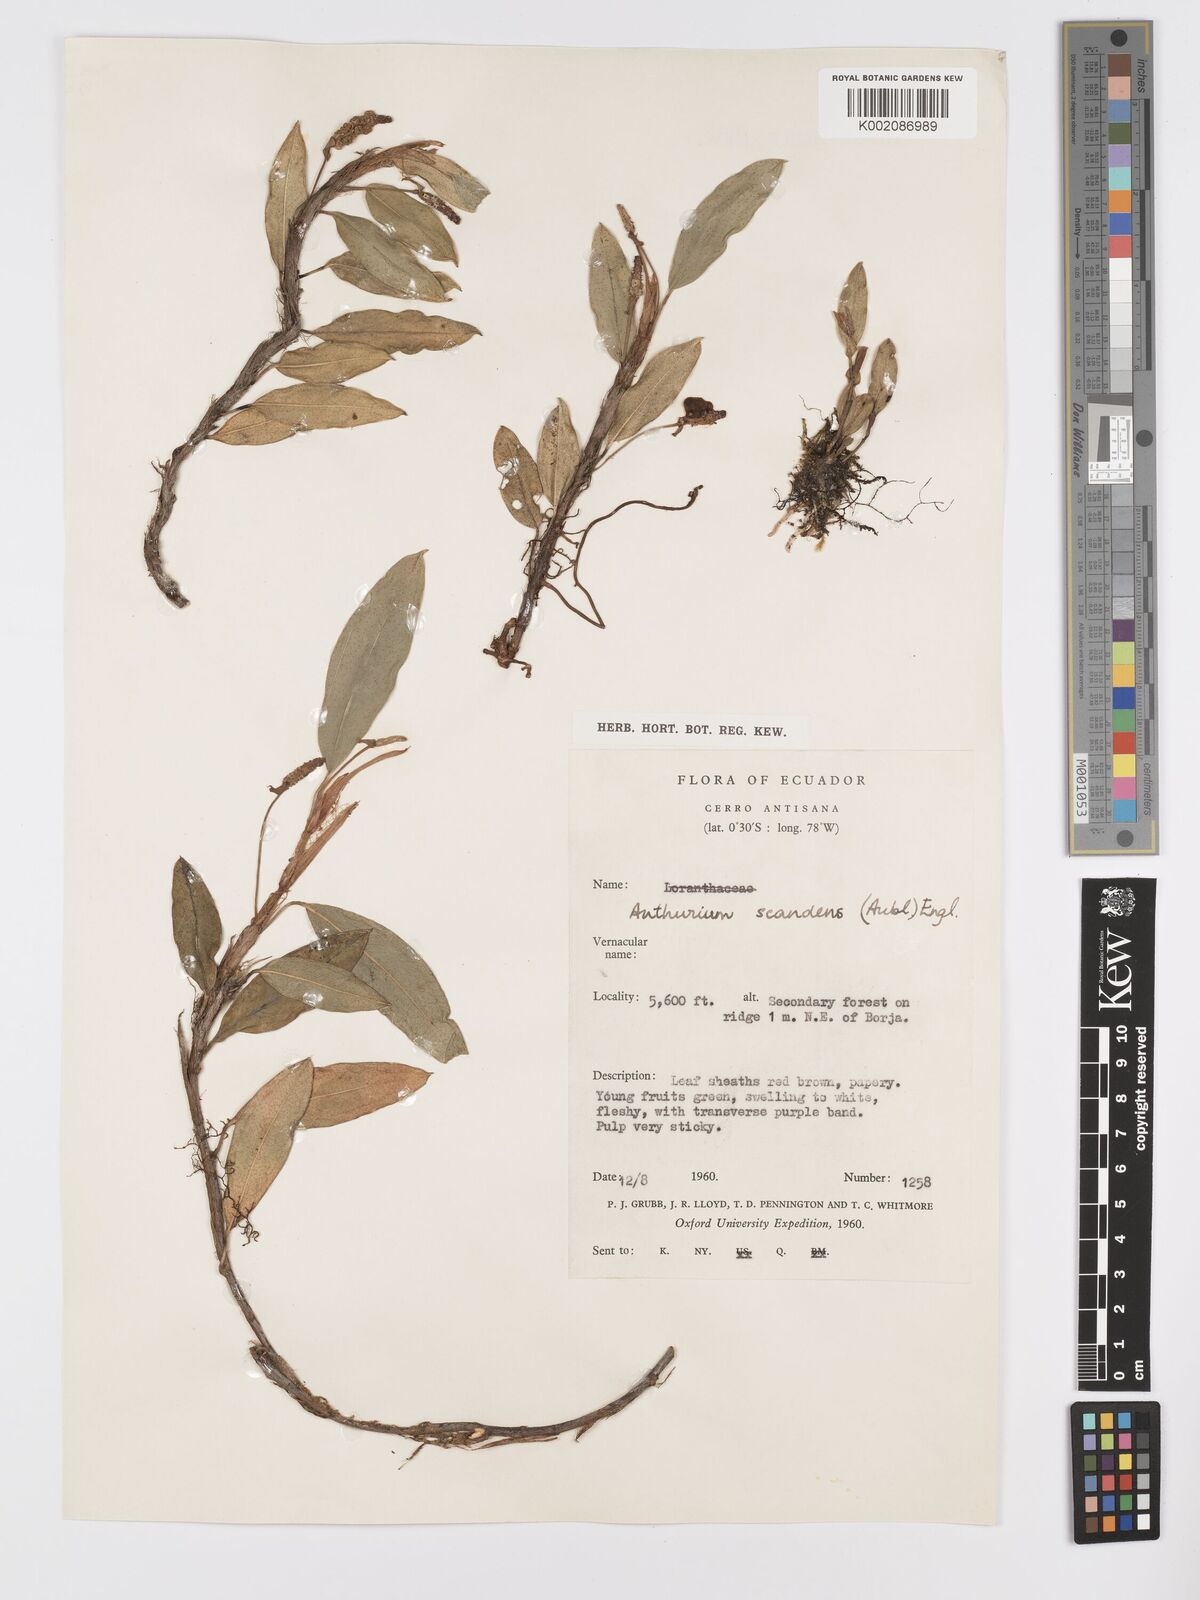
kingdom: Plantae
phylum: Tracheophyta
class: Liliopsida
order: Alismatales
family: Araceae
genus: Anthurium
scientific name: Anthurium scandens
